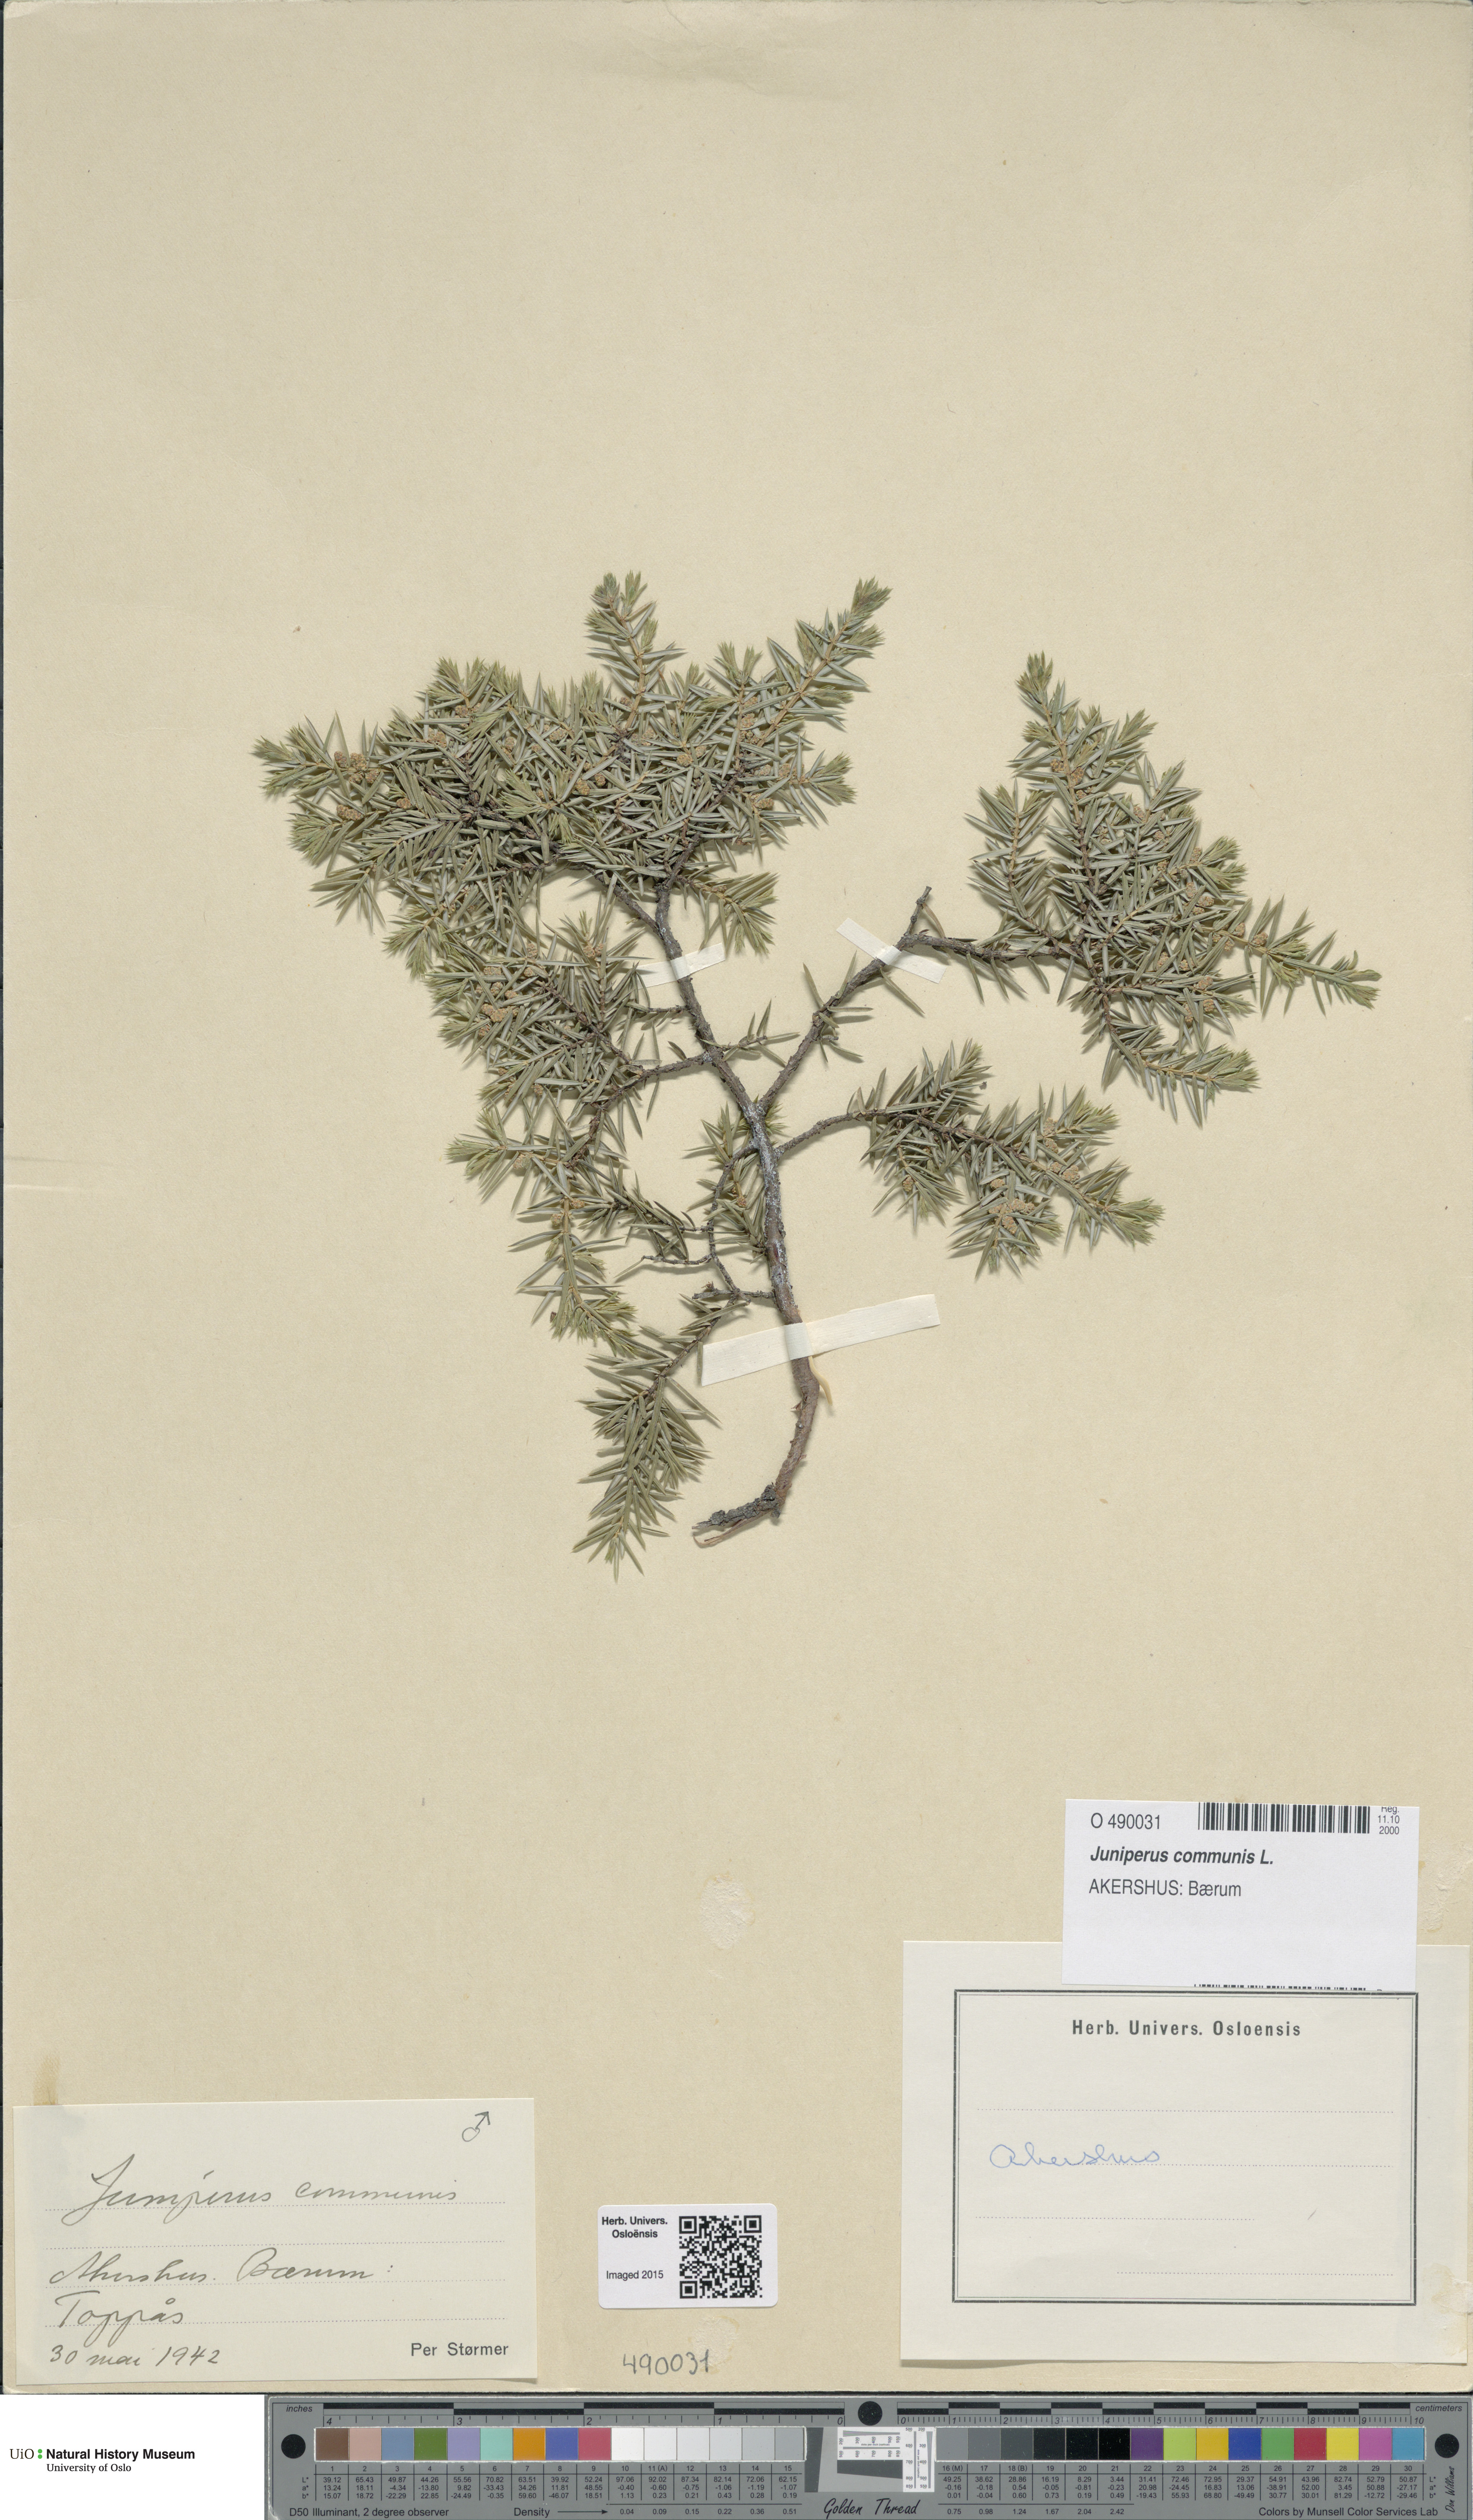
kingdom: Plantae
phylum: Tracheophyta
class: Pinopsida
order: Pinales
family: Cupressaceae
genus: Juniperus
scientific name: Juniperus communis
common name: Common juniper
